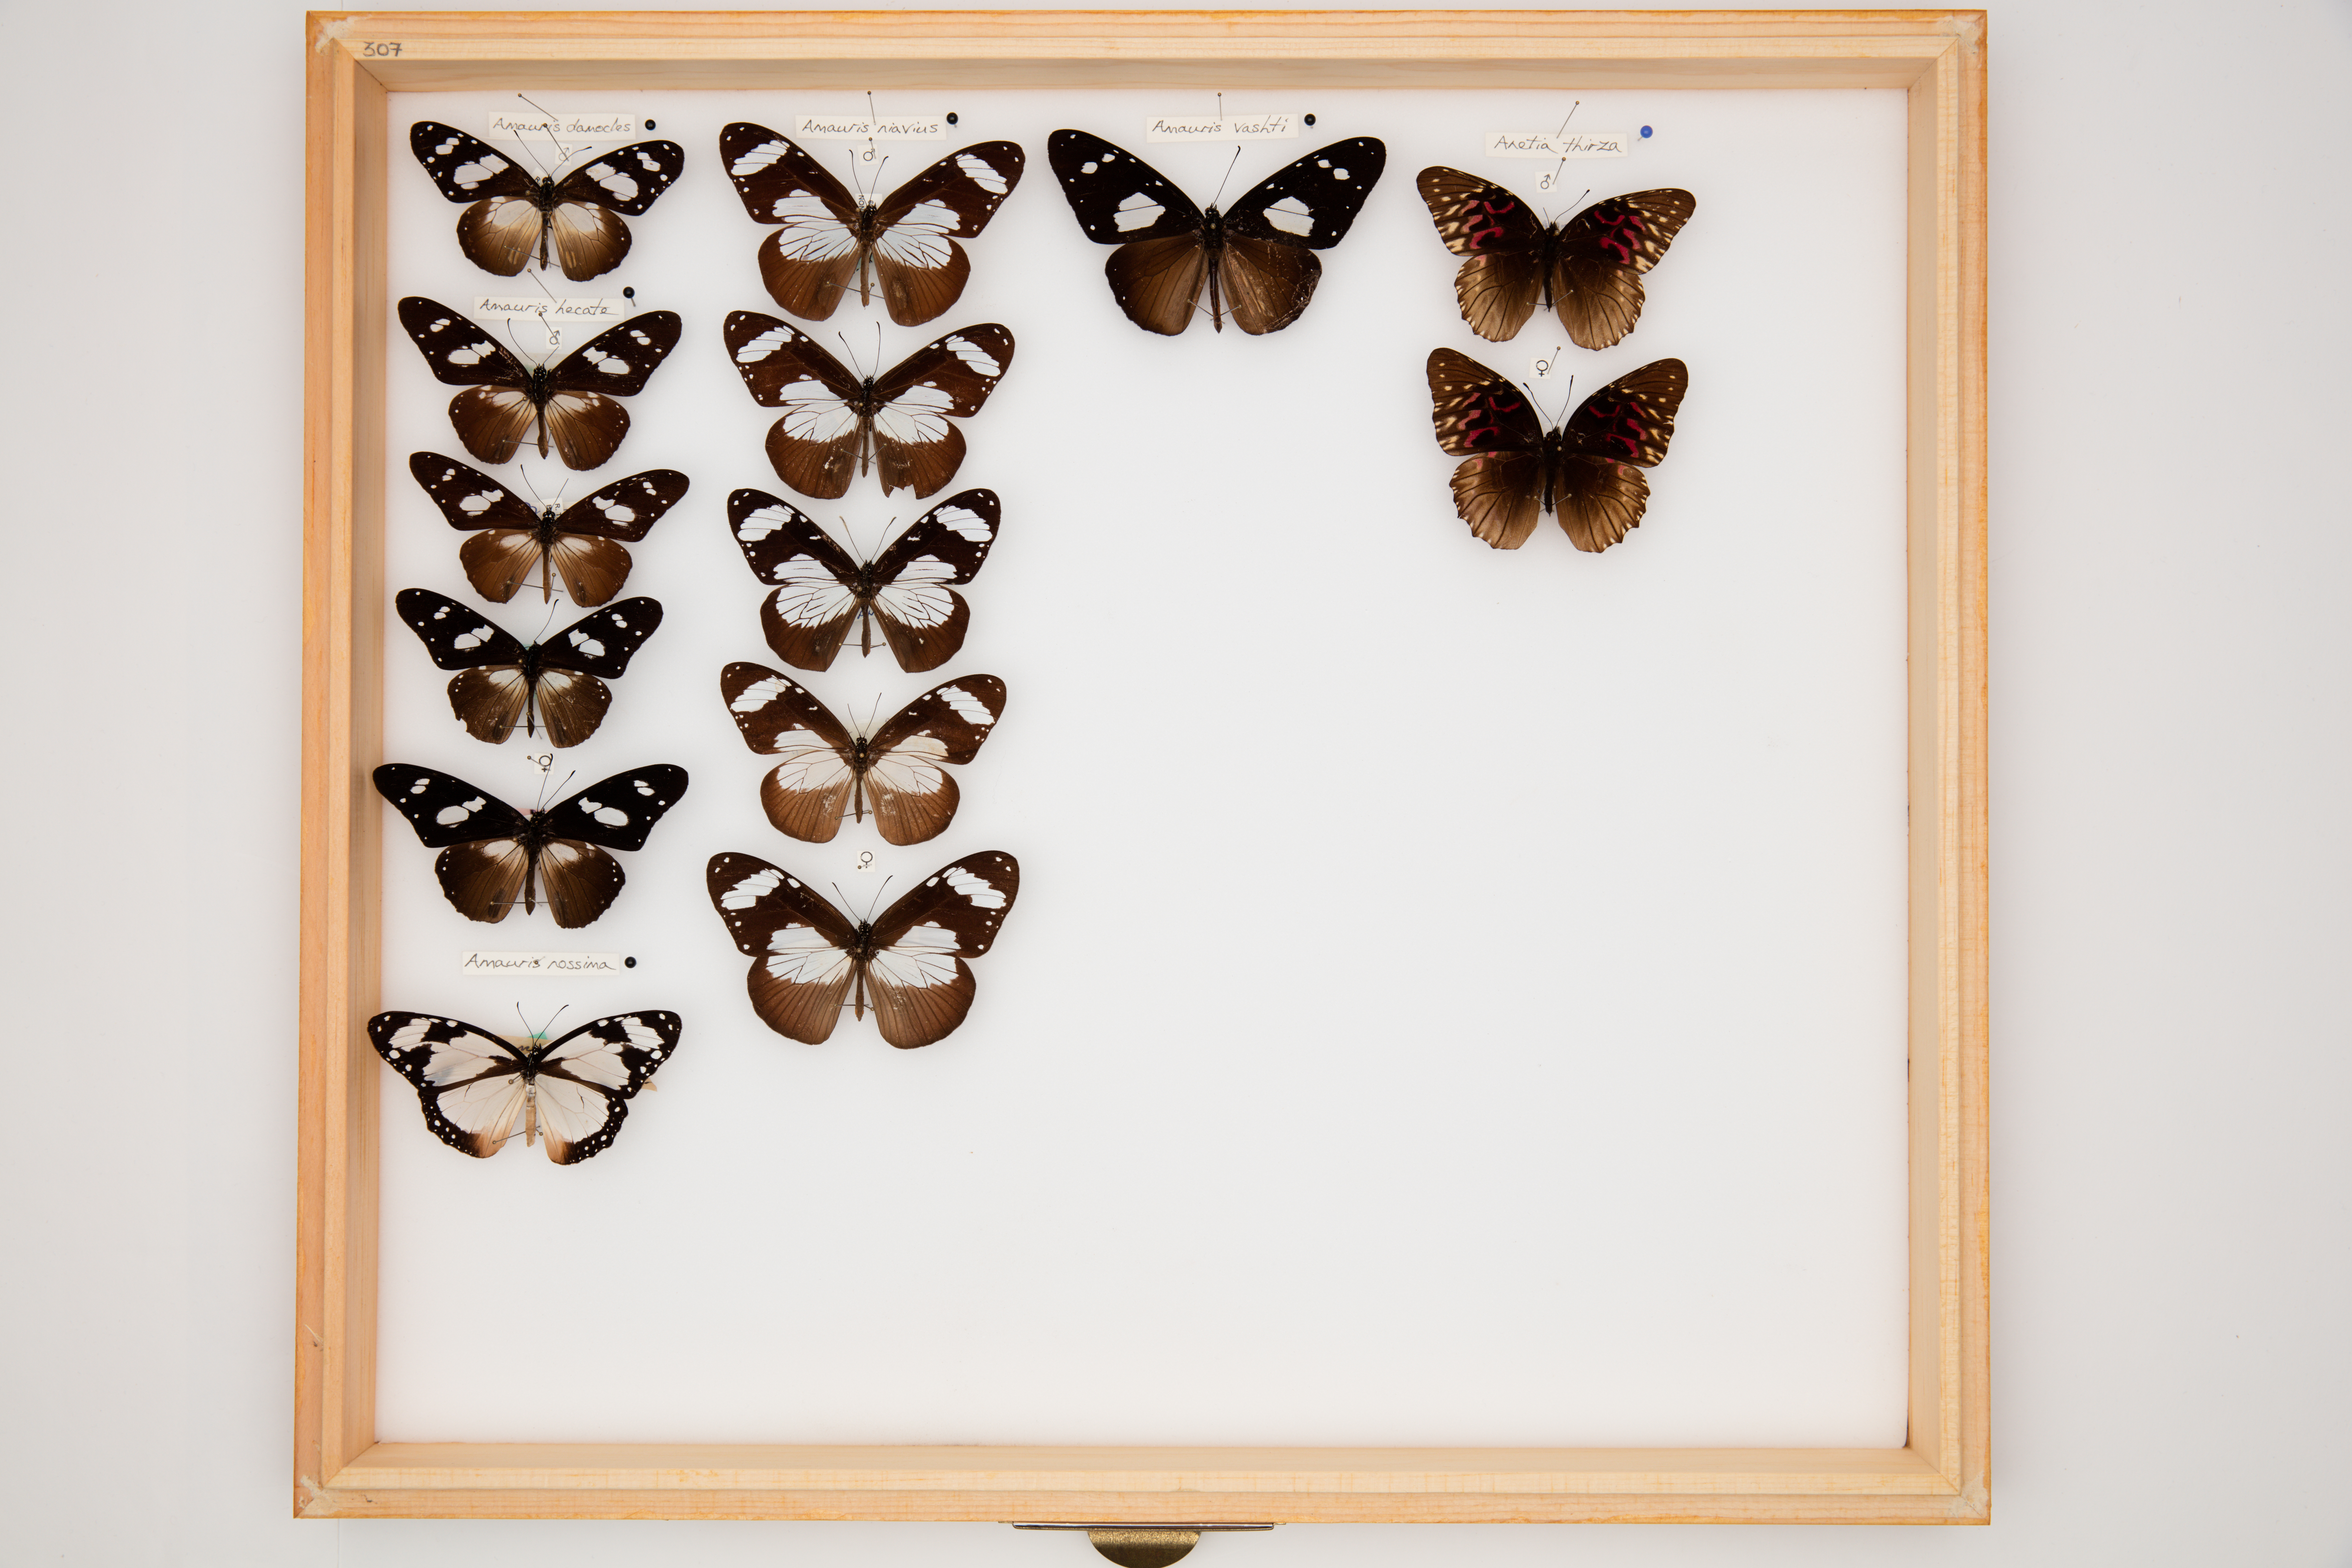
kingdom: Animalia
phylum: Arthropoda
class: Insecta
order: Lepidoptera
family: Nymphalidae
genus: Amauris
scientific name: Amauris niavius
